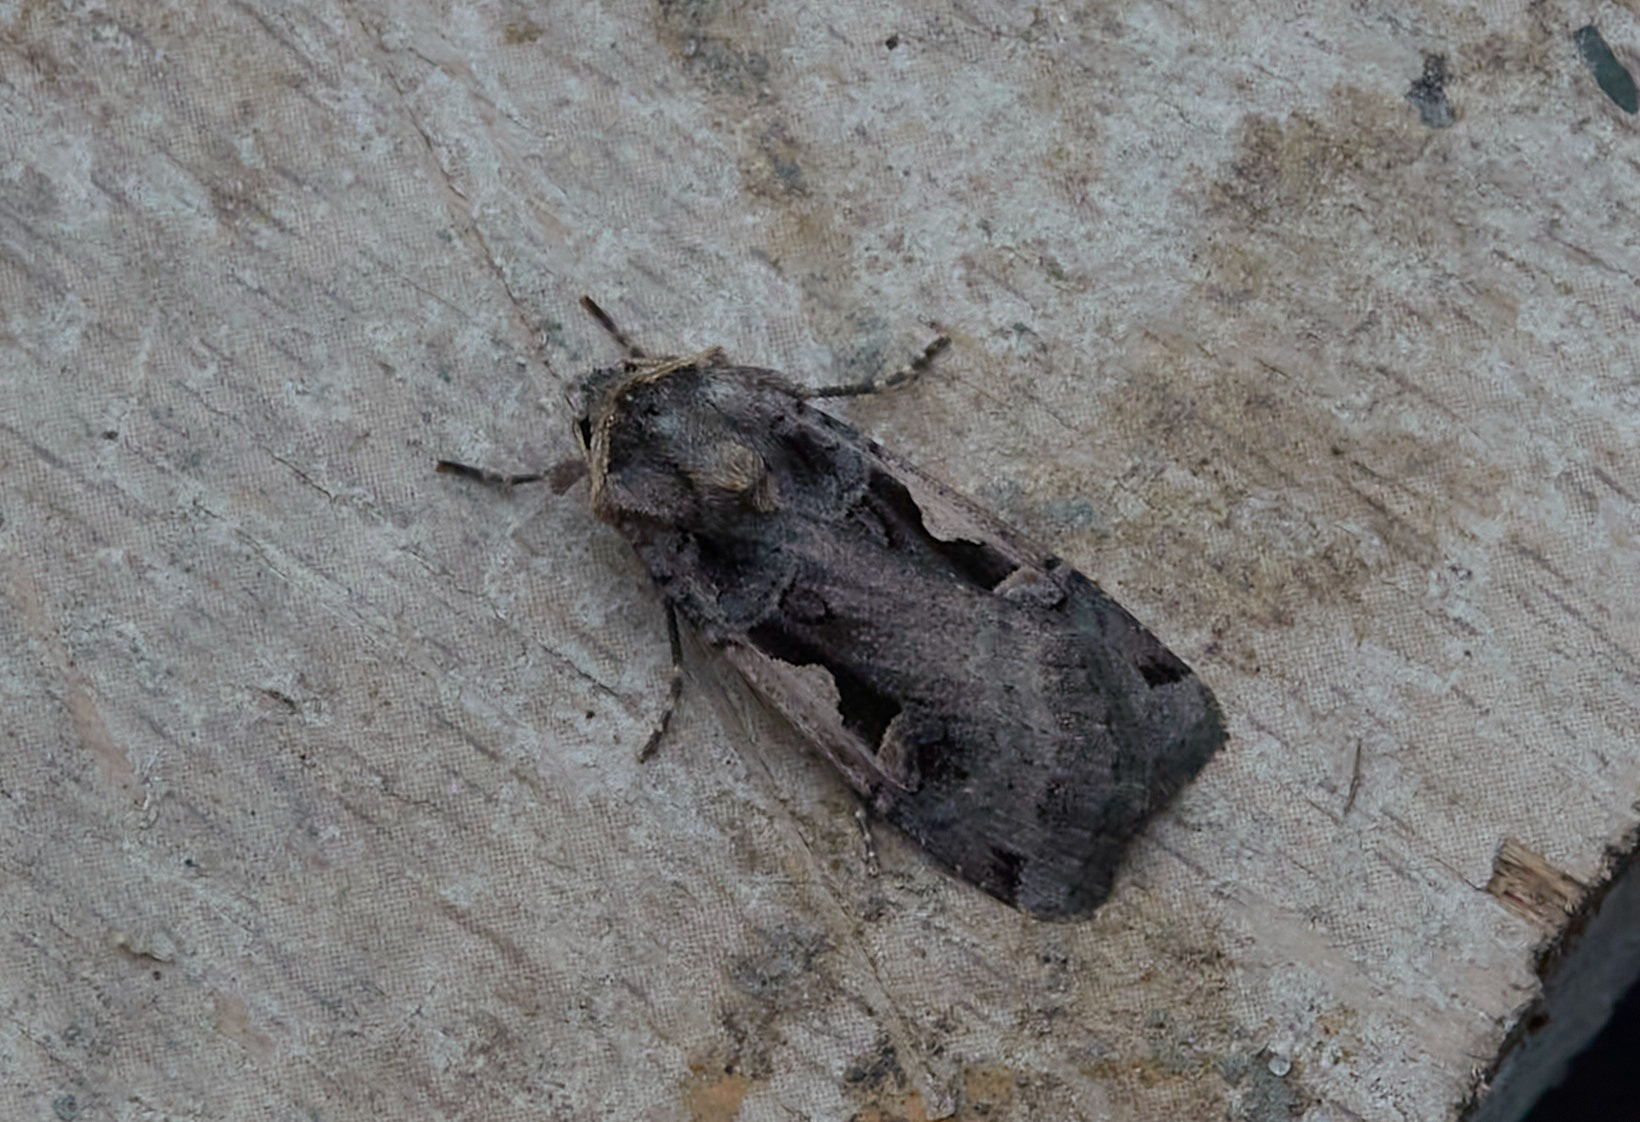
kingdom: Animalia
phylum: Arthropoda
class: Insecta
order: Lepidoptera
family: Noctuidae
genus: Xestia
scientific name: Xestia c-nigrum
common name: Det sorte c
